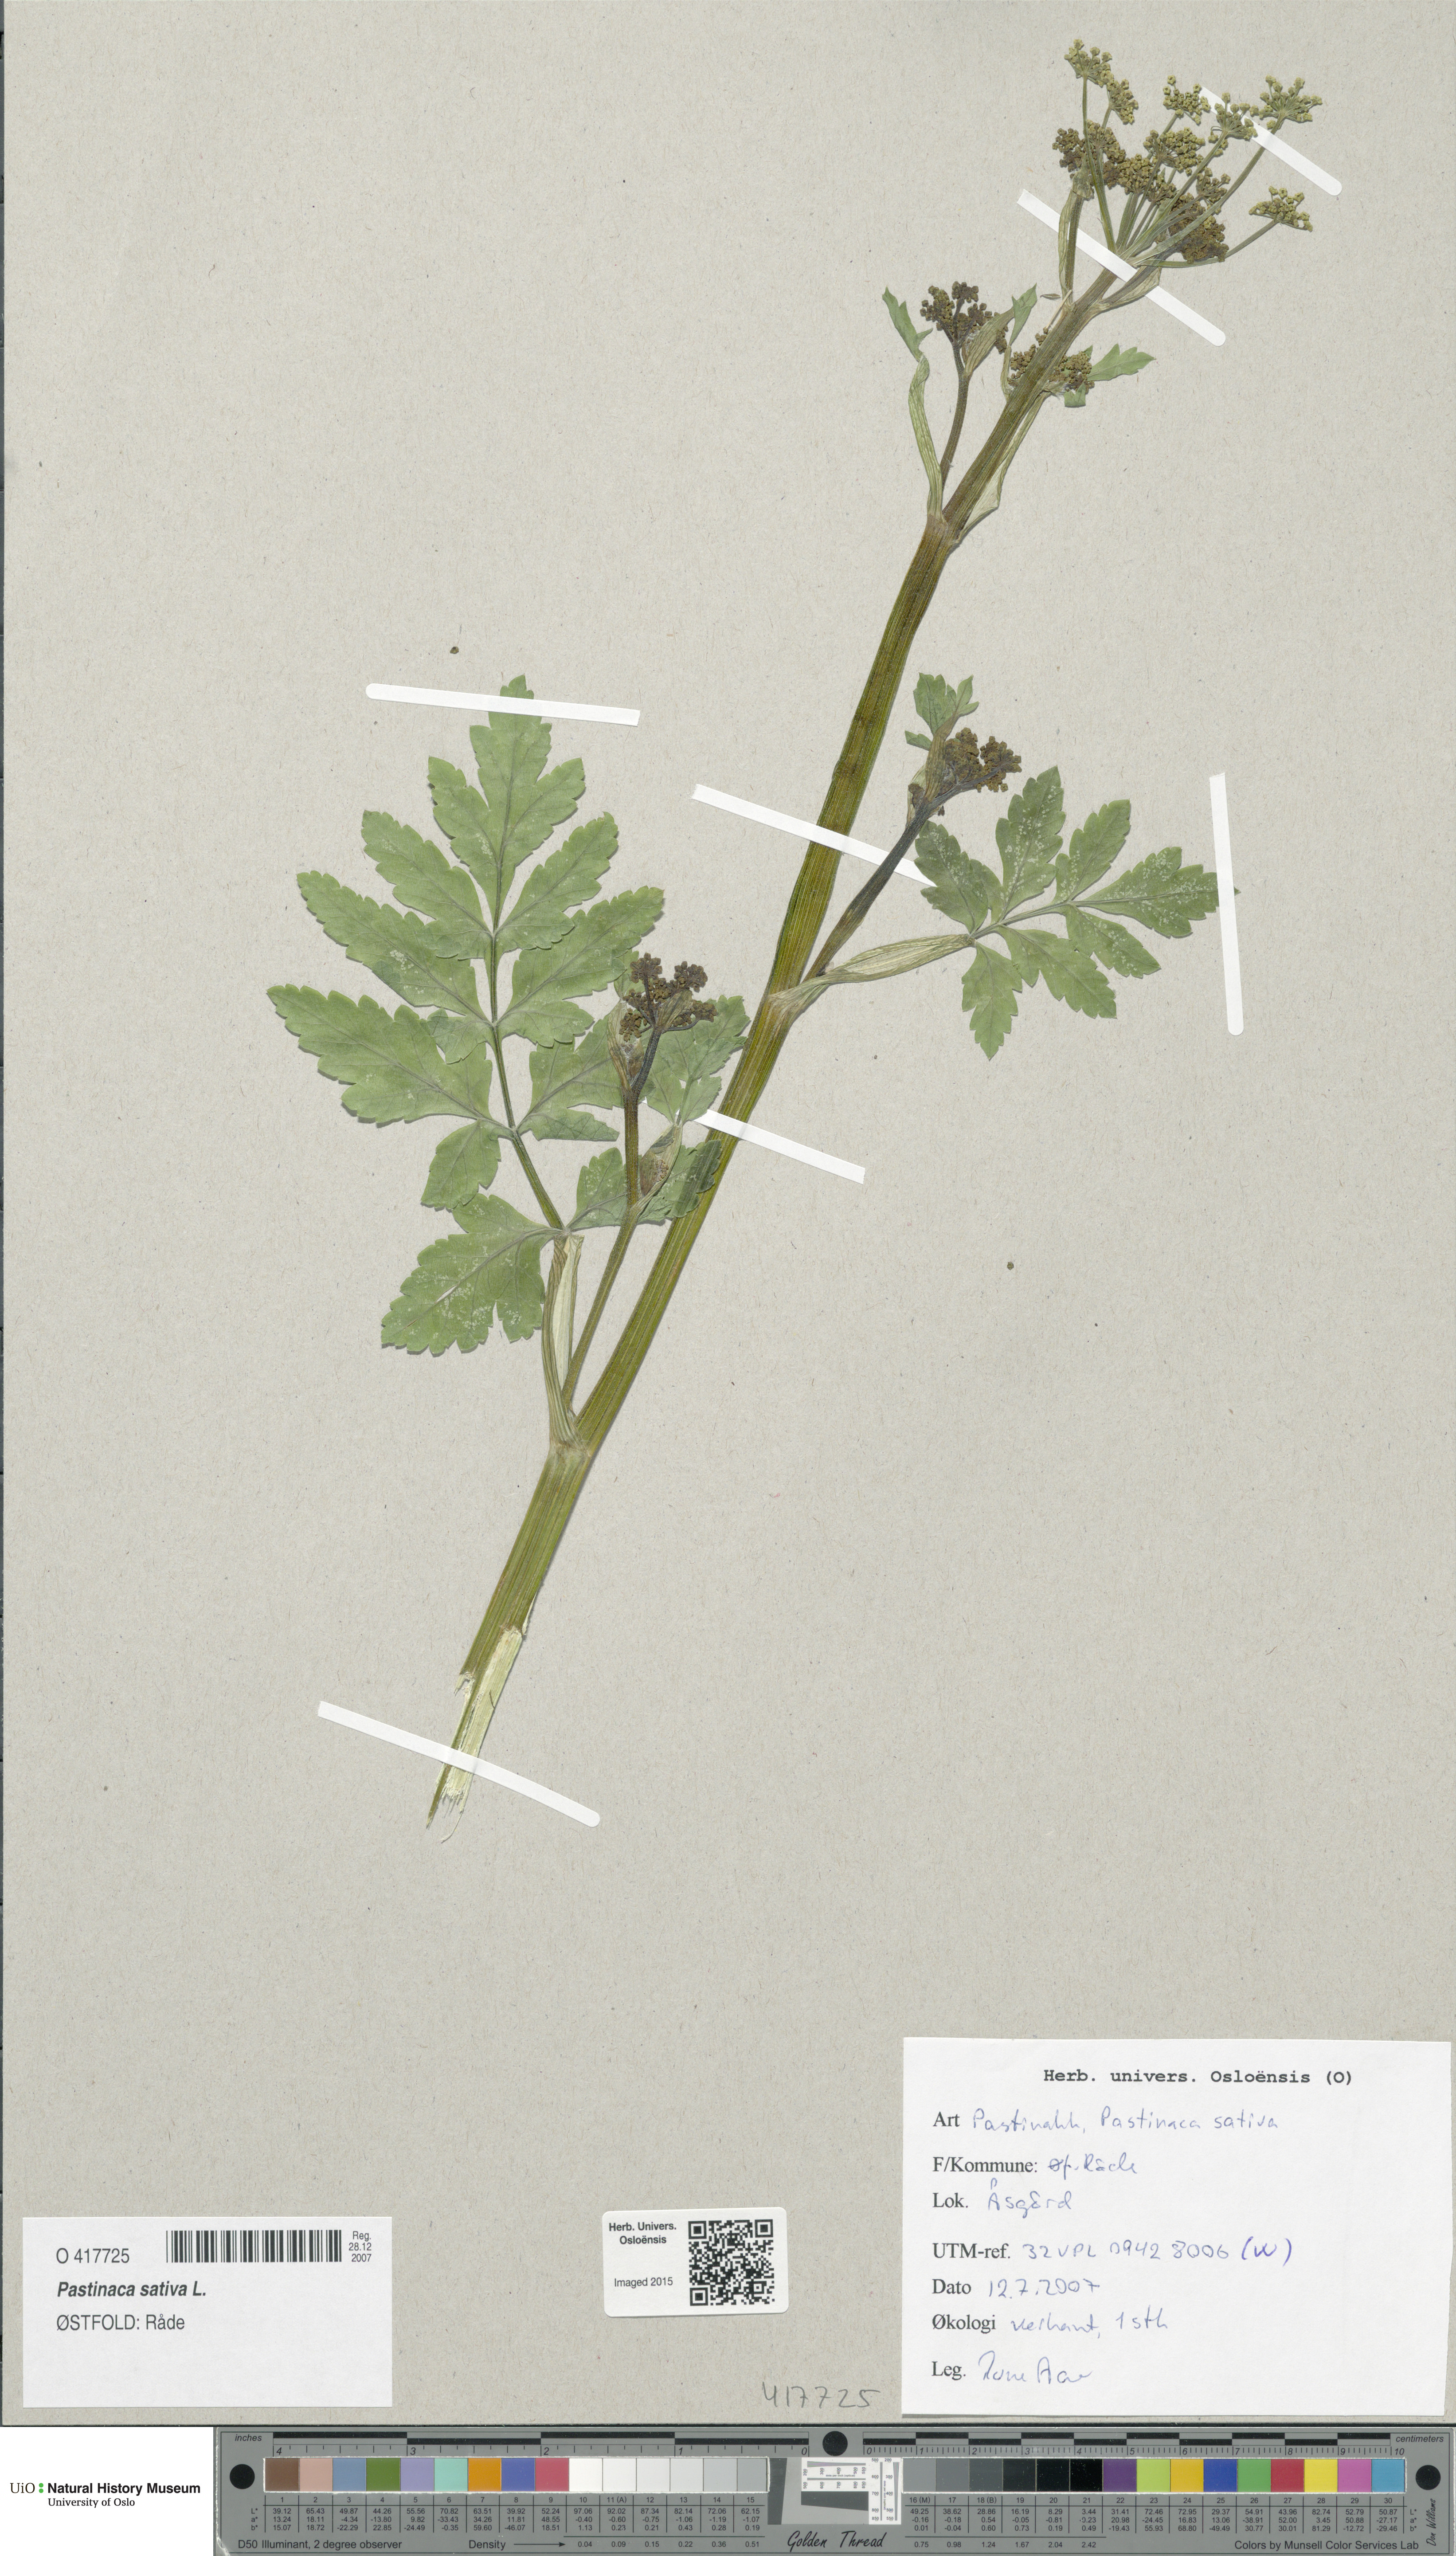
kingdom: Plantae
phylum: Tracheophyta
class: Magnoliopsida
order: Apiales
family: Apiaceae
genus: Pastinaca
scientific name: Pastinaca sativa
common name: Wild parsnip
